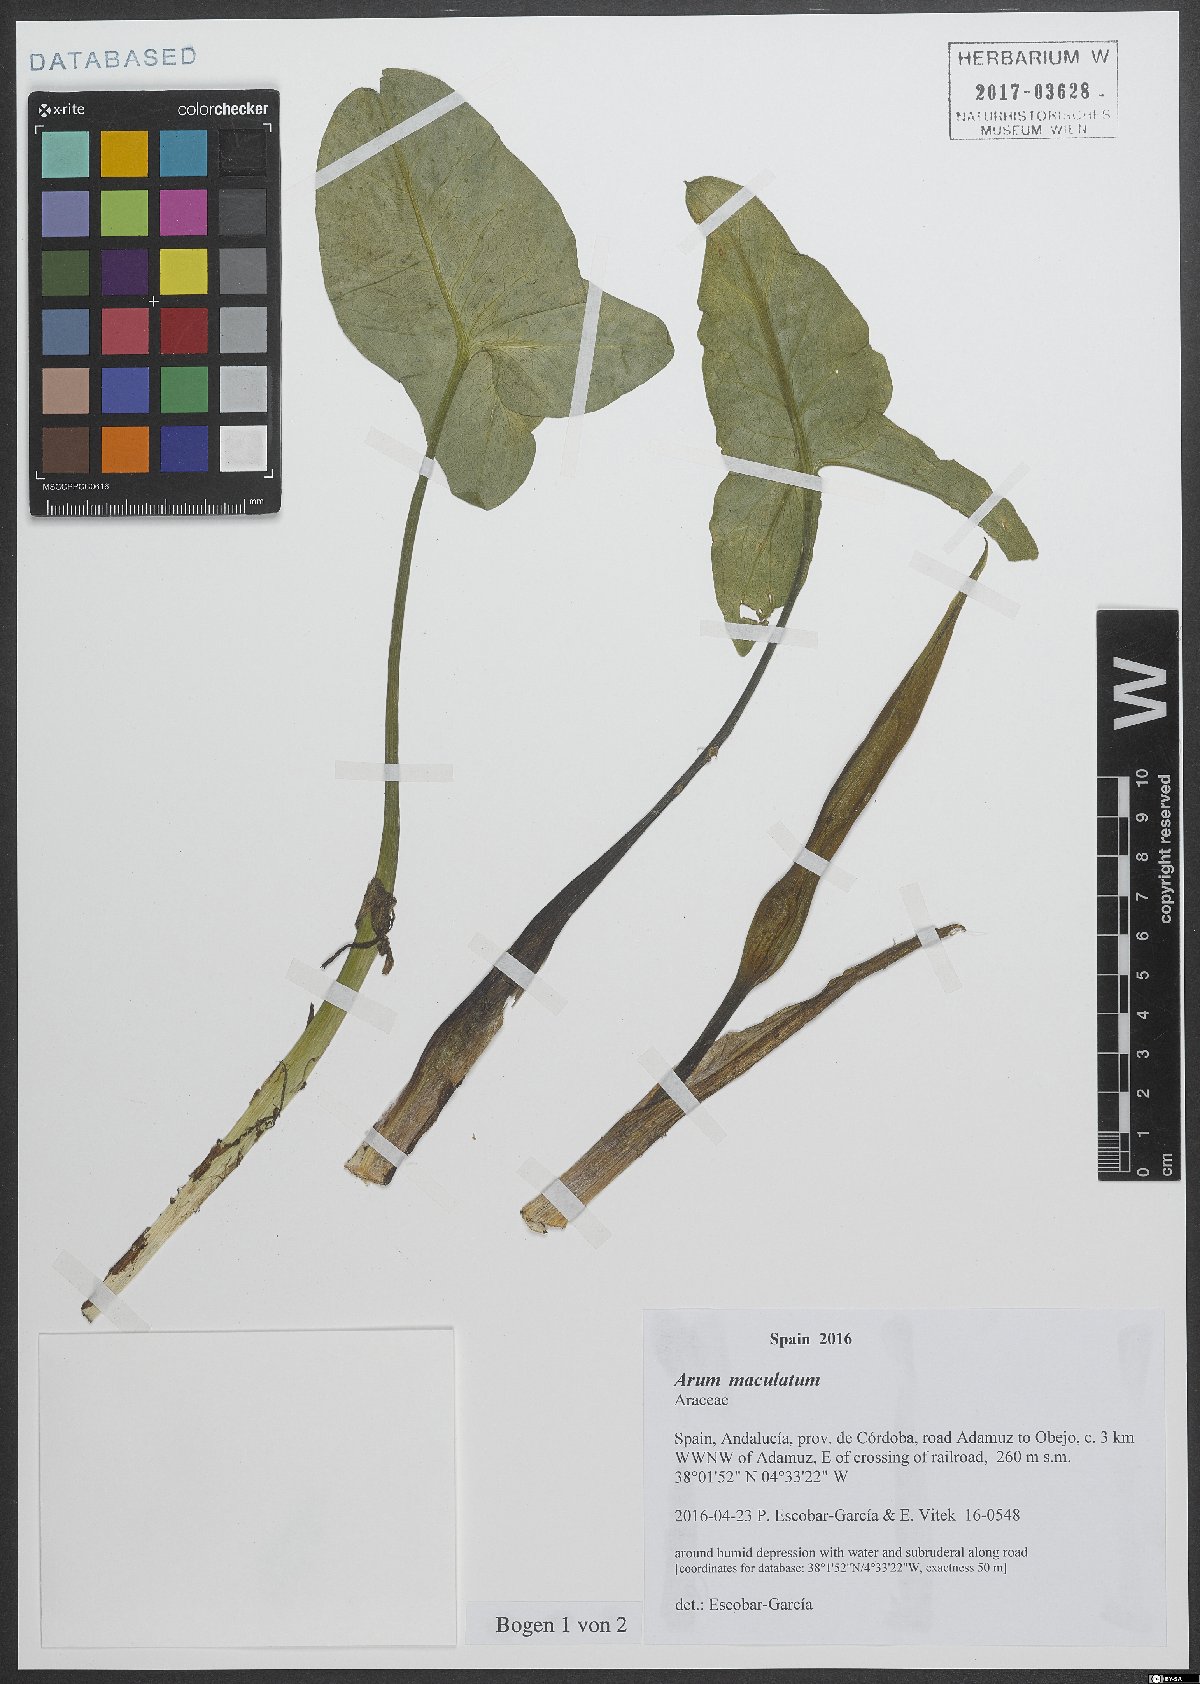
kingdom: Plantae
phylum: Tracheophyta
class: Liliopsida
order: Alismatales
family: Araceae
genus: Arum
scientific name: Arum maculatum
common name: Lords-and-ladies
